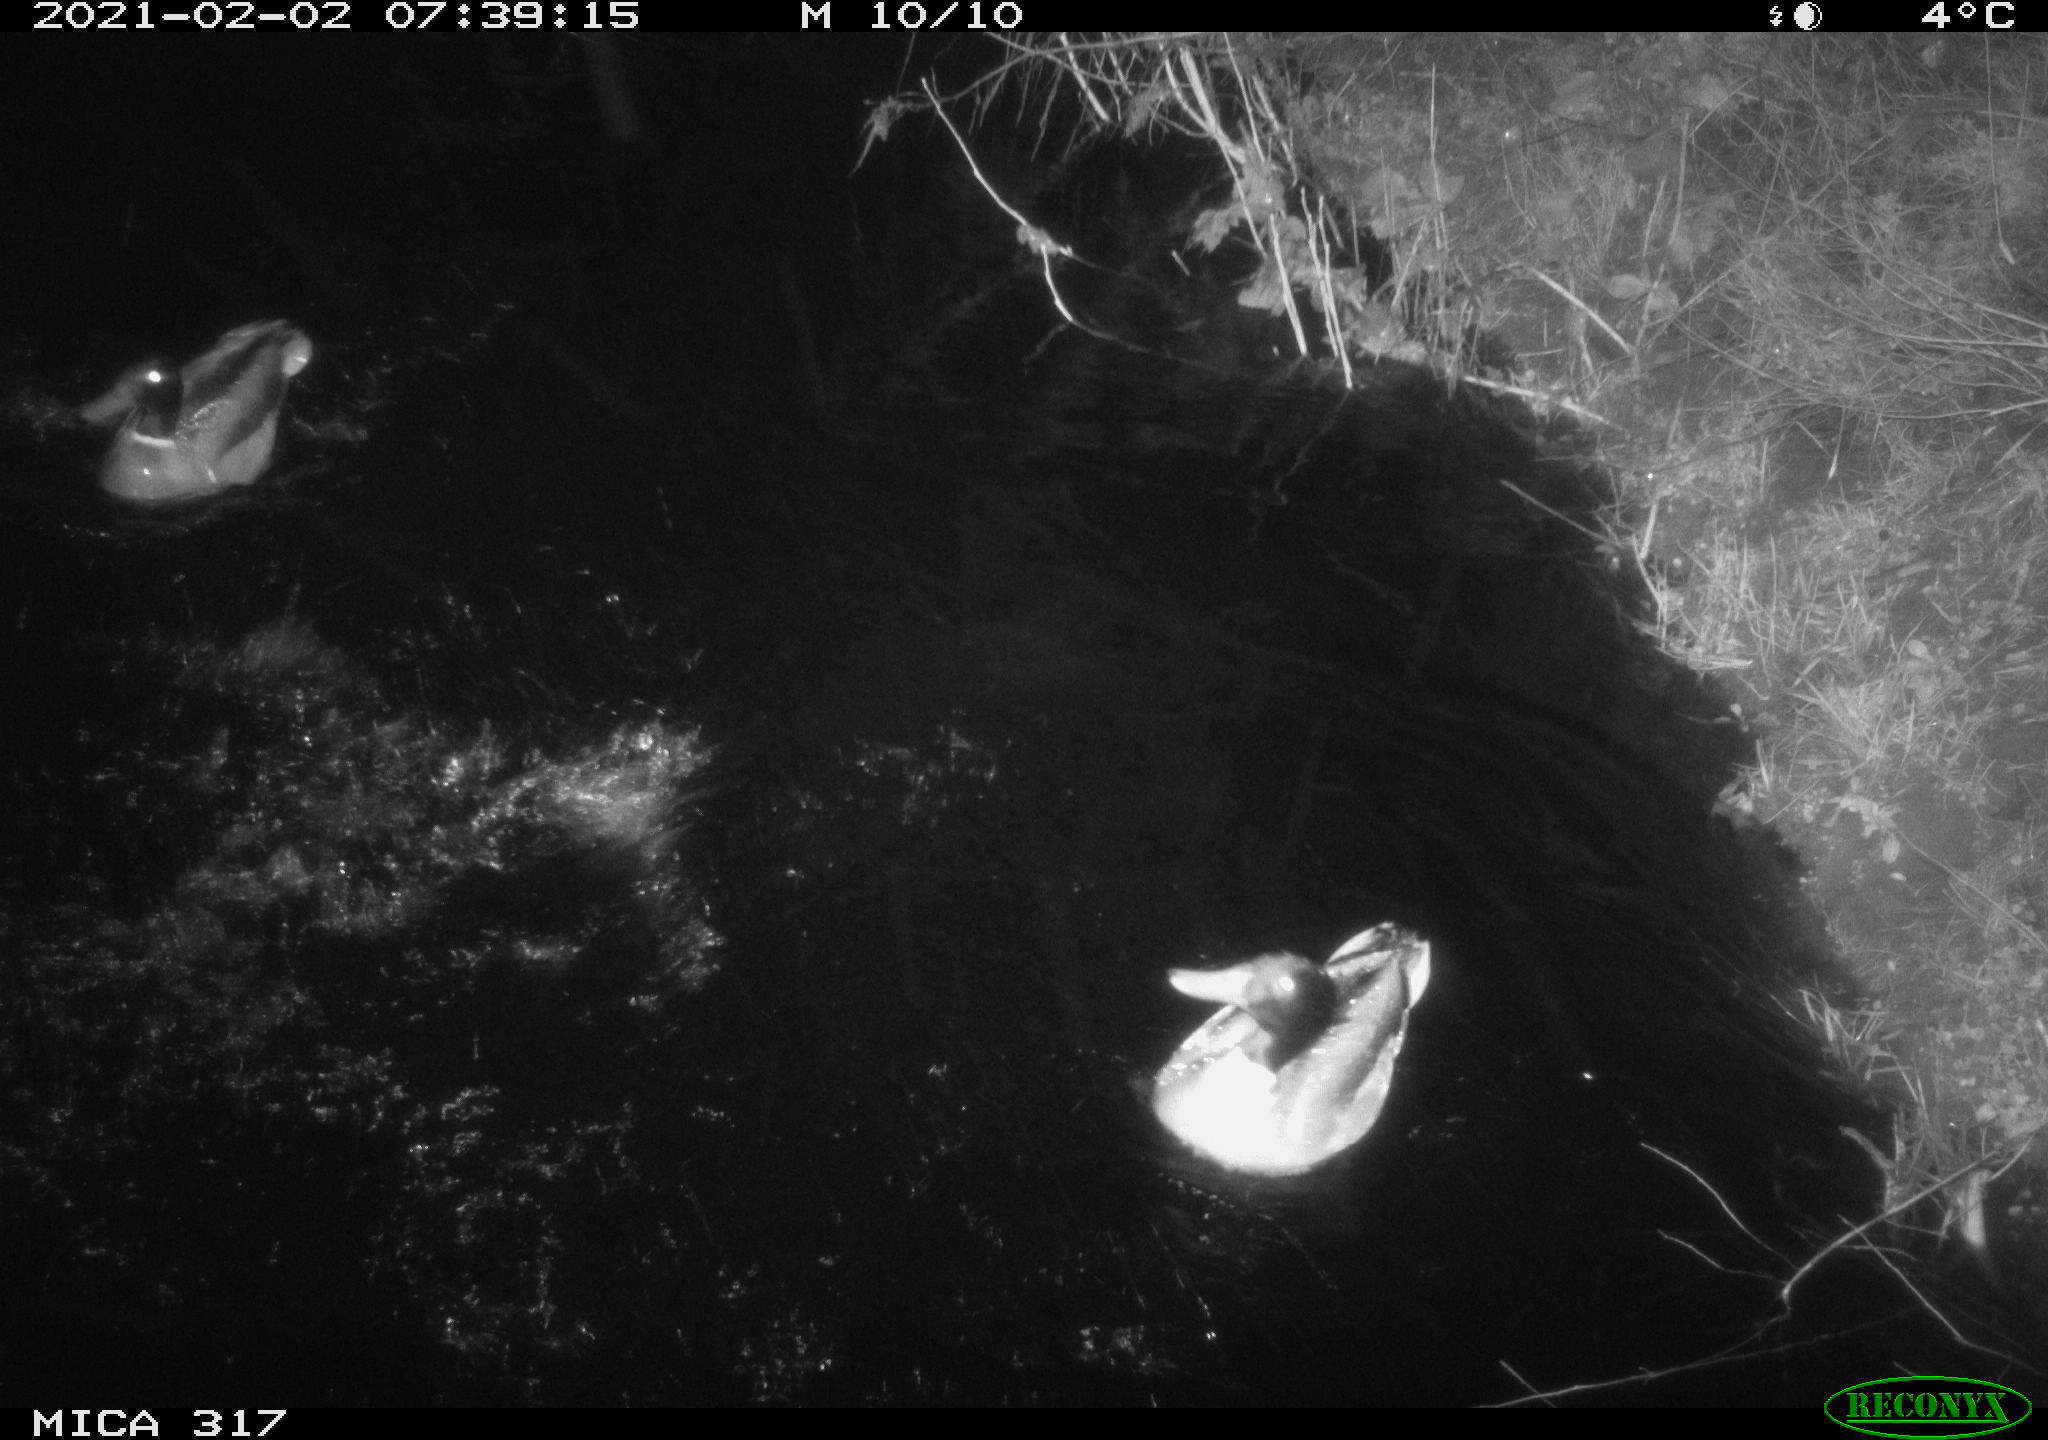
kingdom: Animalia
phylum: Chordata
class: Aves
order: Anseriformes
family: Anatidae
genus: Anas
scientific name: Anas platyrhynchos
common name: Mallard
